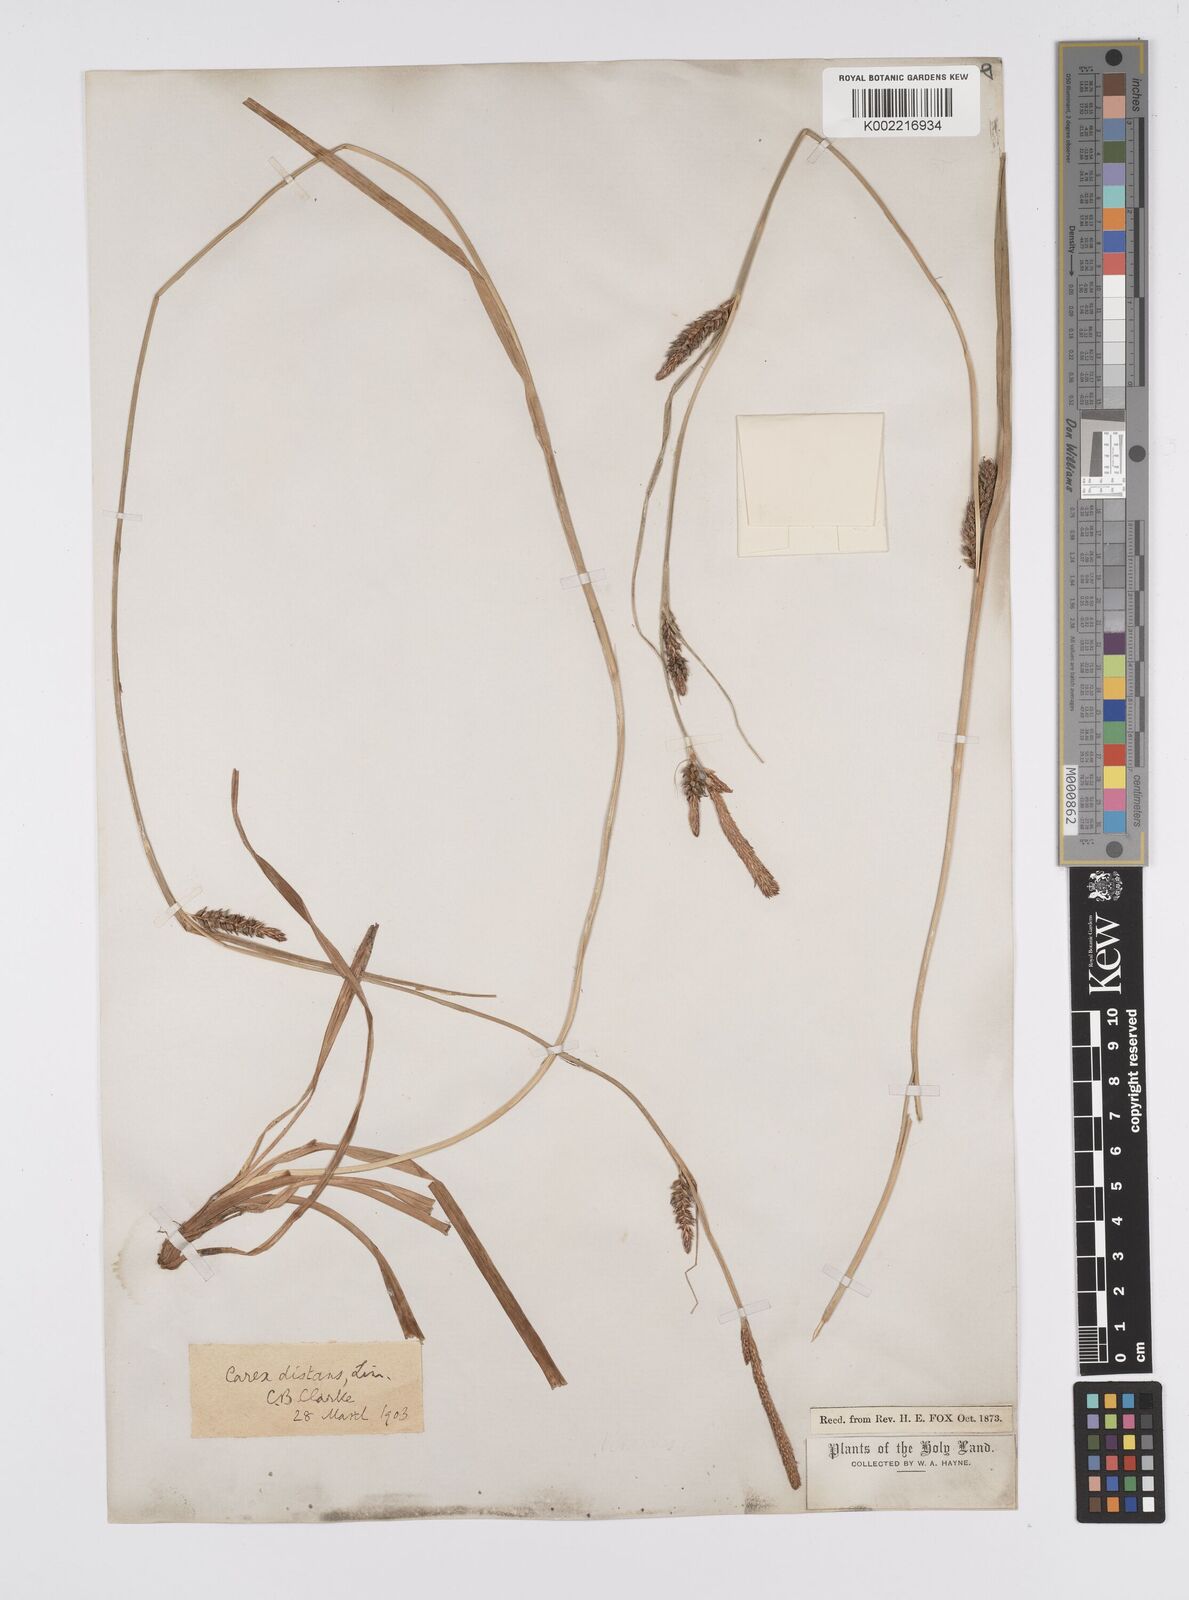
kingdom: Plantae
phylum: Tracheophyta
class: Liliopsida
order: Poales
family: Cyperaceae
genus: Carex
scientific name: Carex distans
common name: Distant sedge
